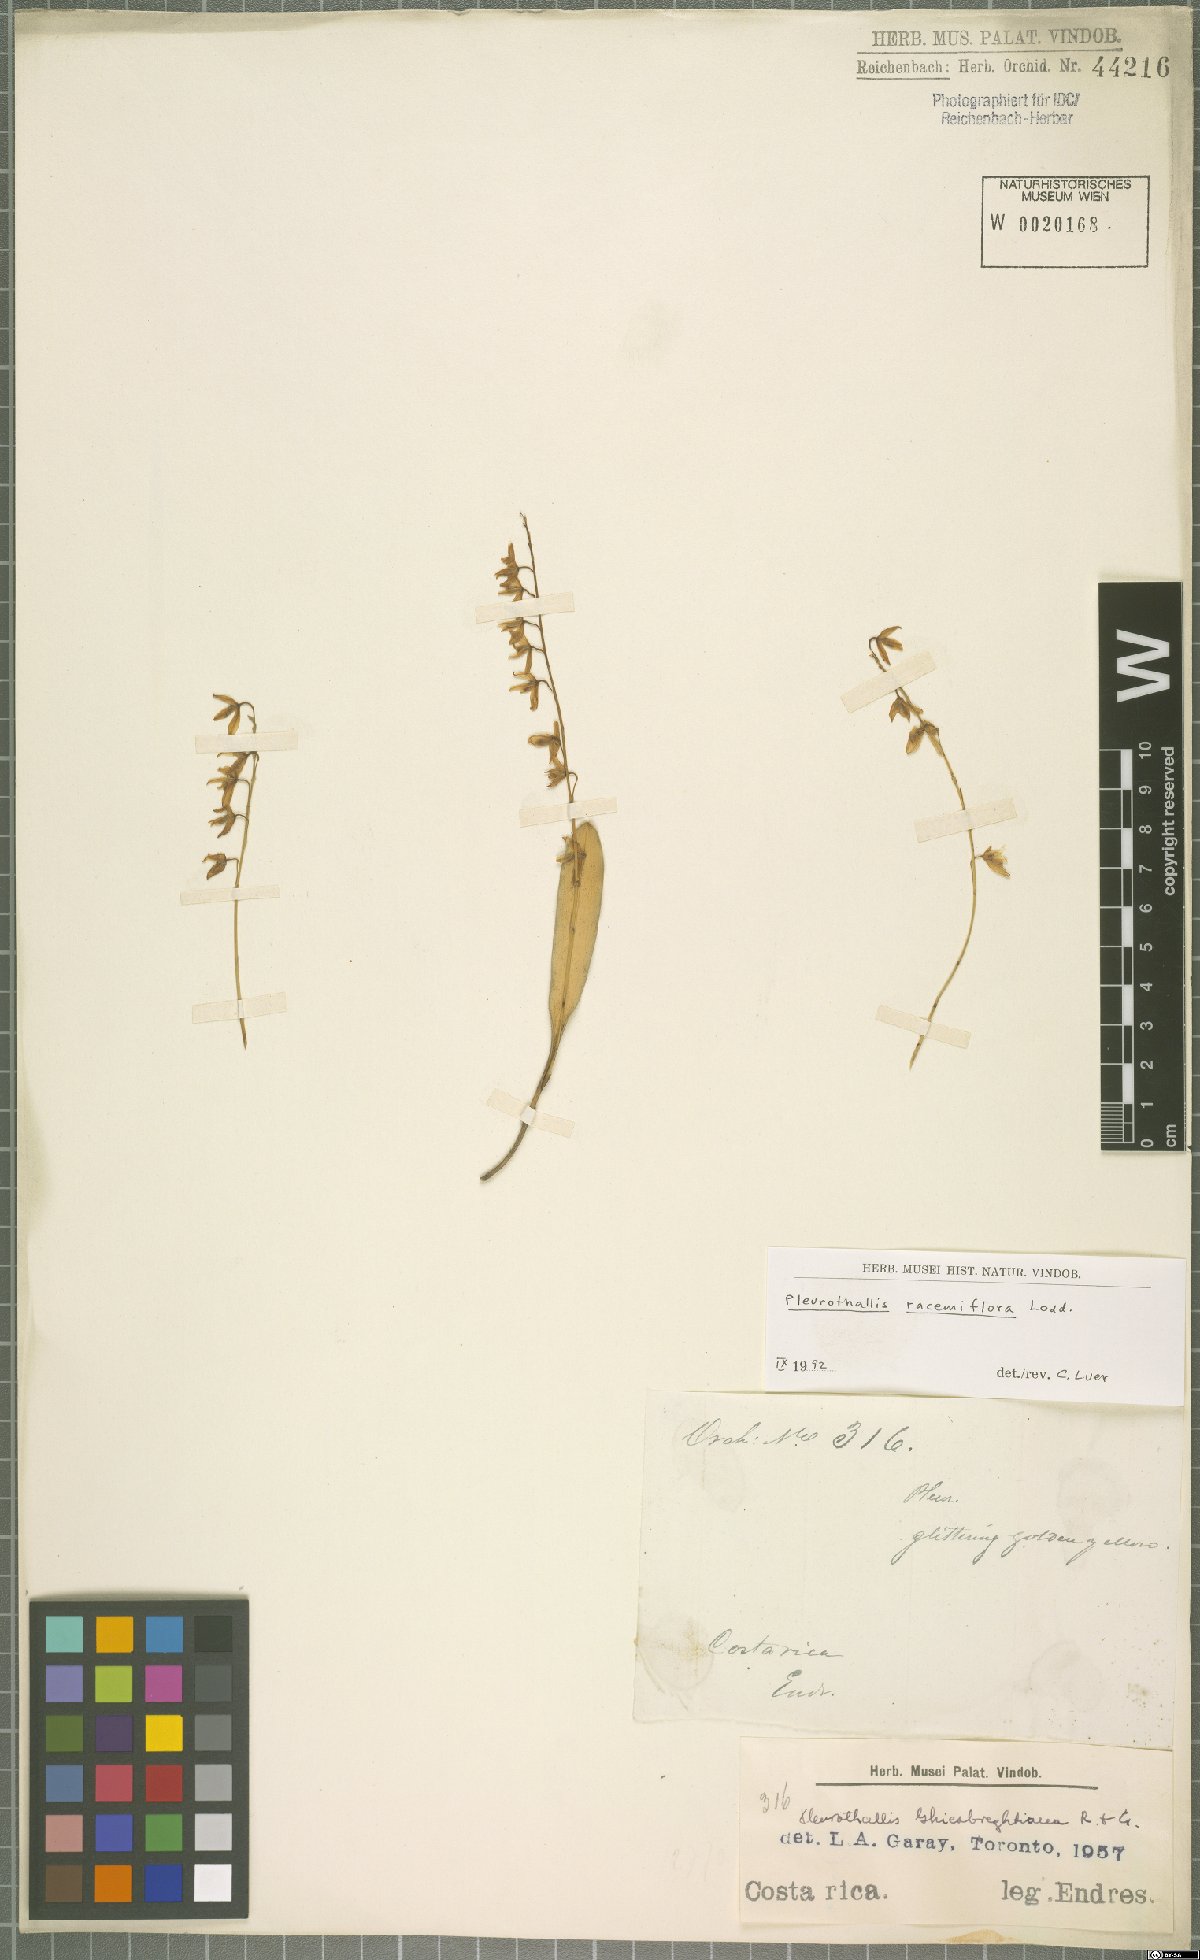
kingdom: Plantae
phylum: Tracheophyta
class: Liliopsida
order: Asparagales
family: Orchidaceae
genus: Stelis
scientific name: Stelis multirostris
